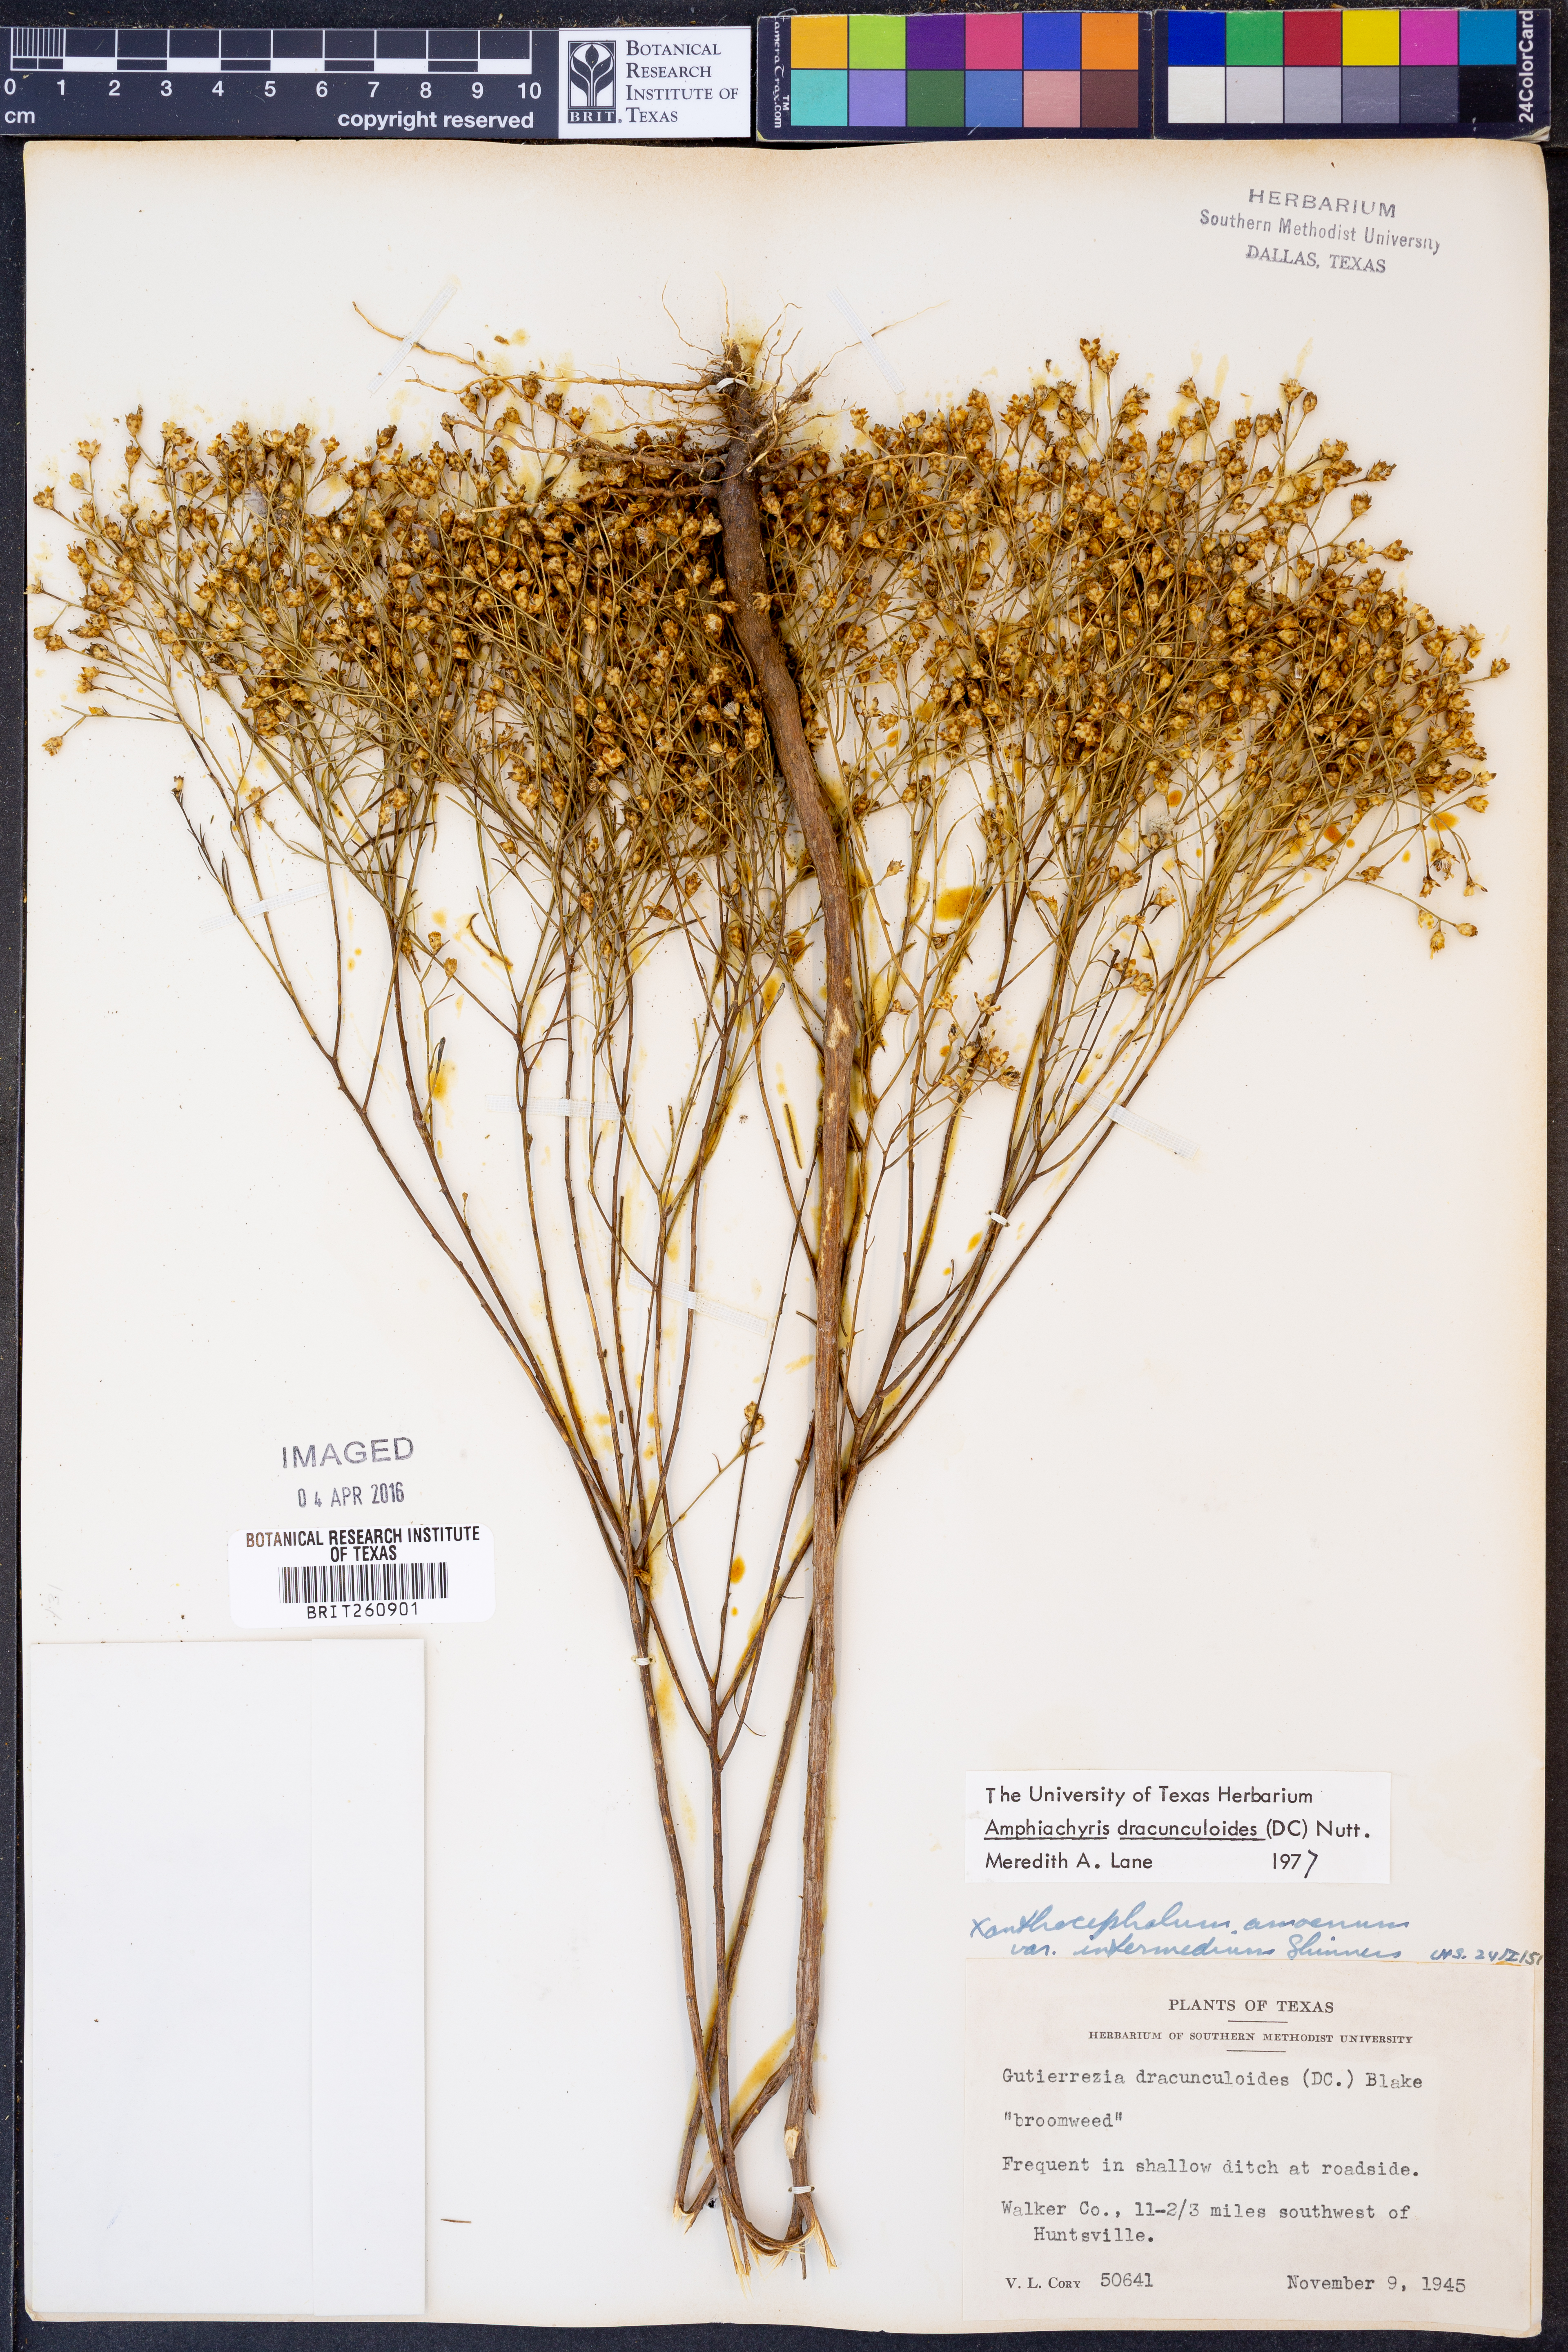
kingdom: Plantae
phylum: Tracheophyta
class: Magnoliopsida
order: Asterales
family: Asteraceae
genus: Amphiachyris
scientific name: Amphiachyris dracunculoides
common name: Broomweed
